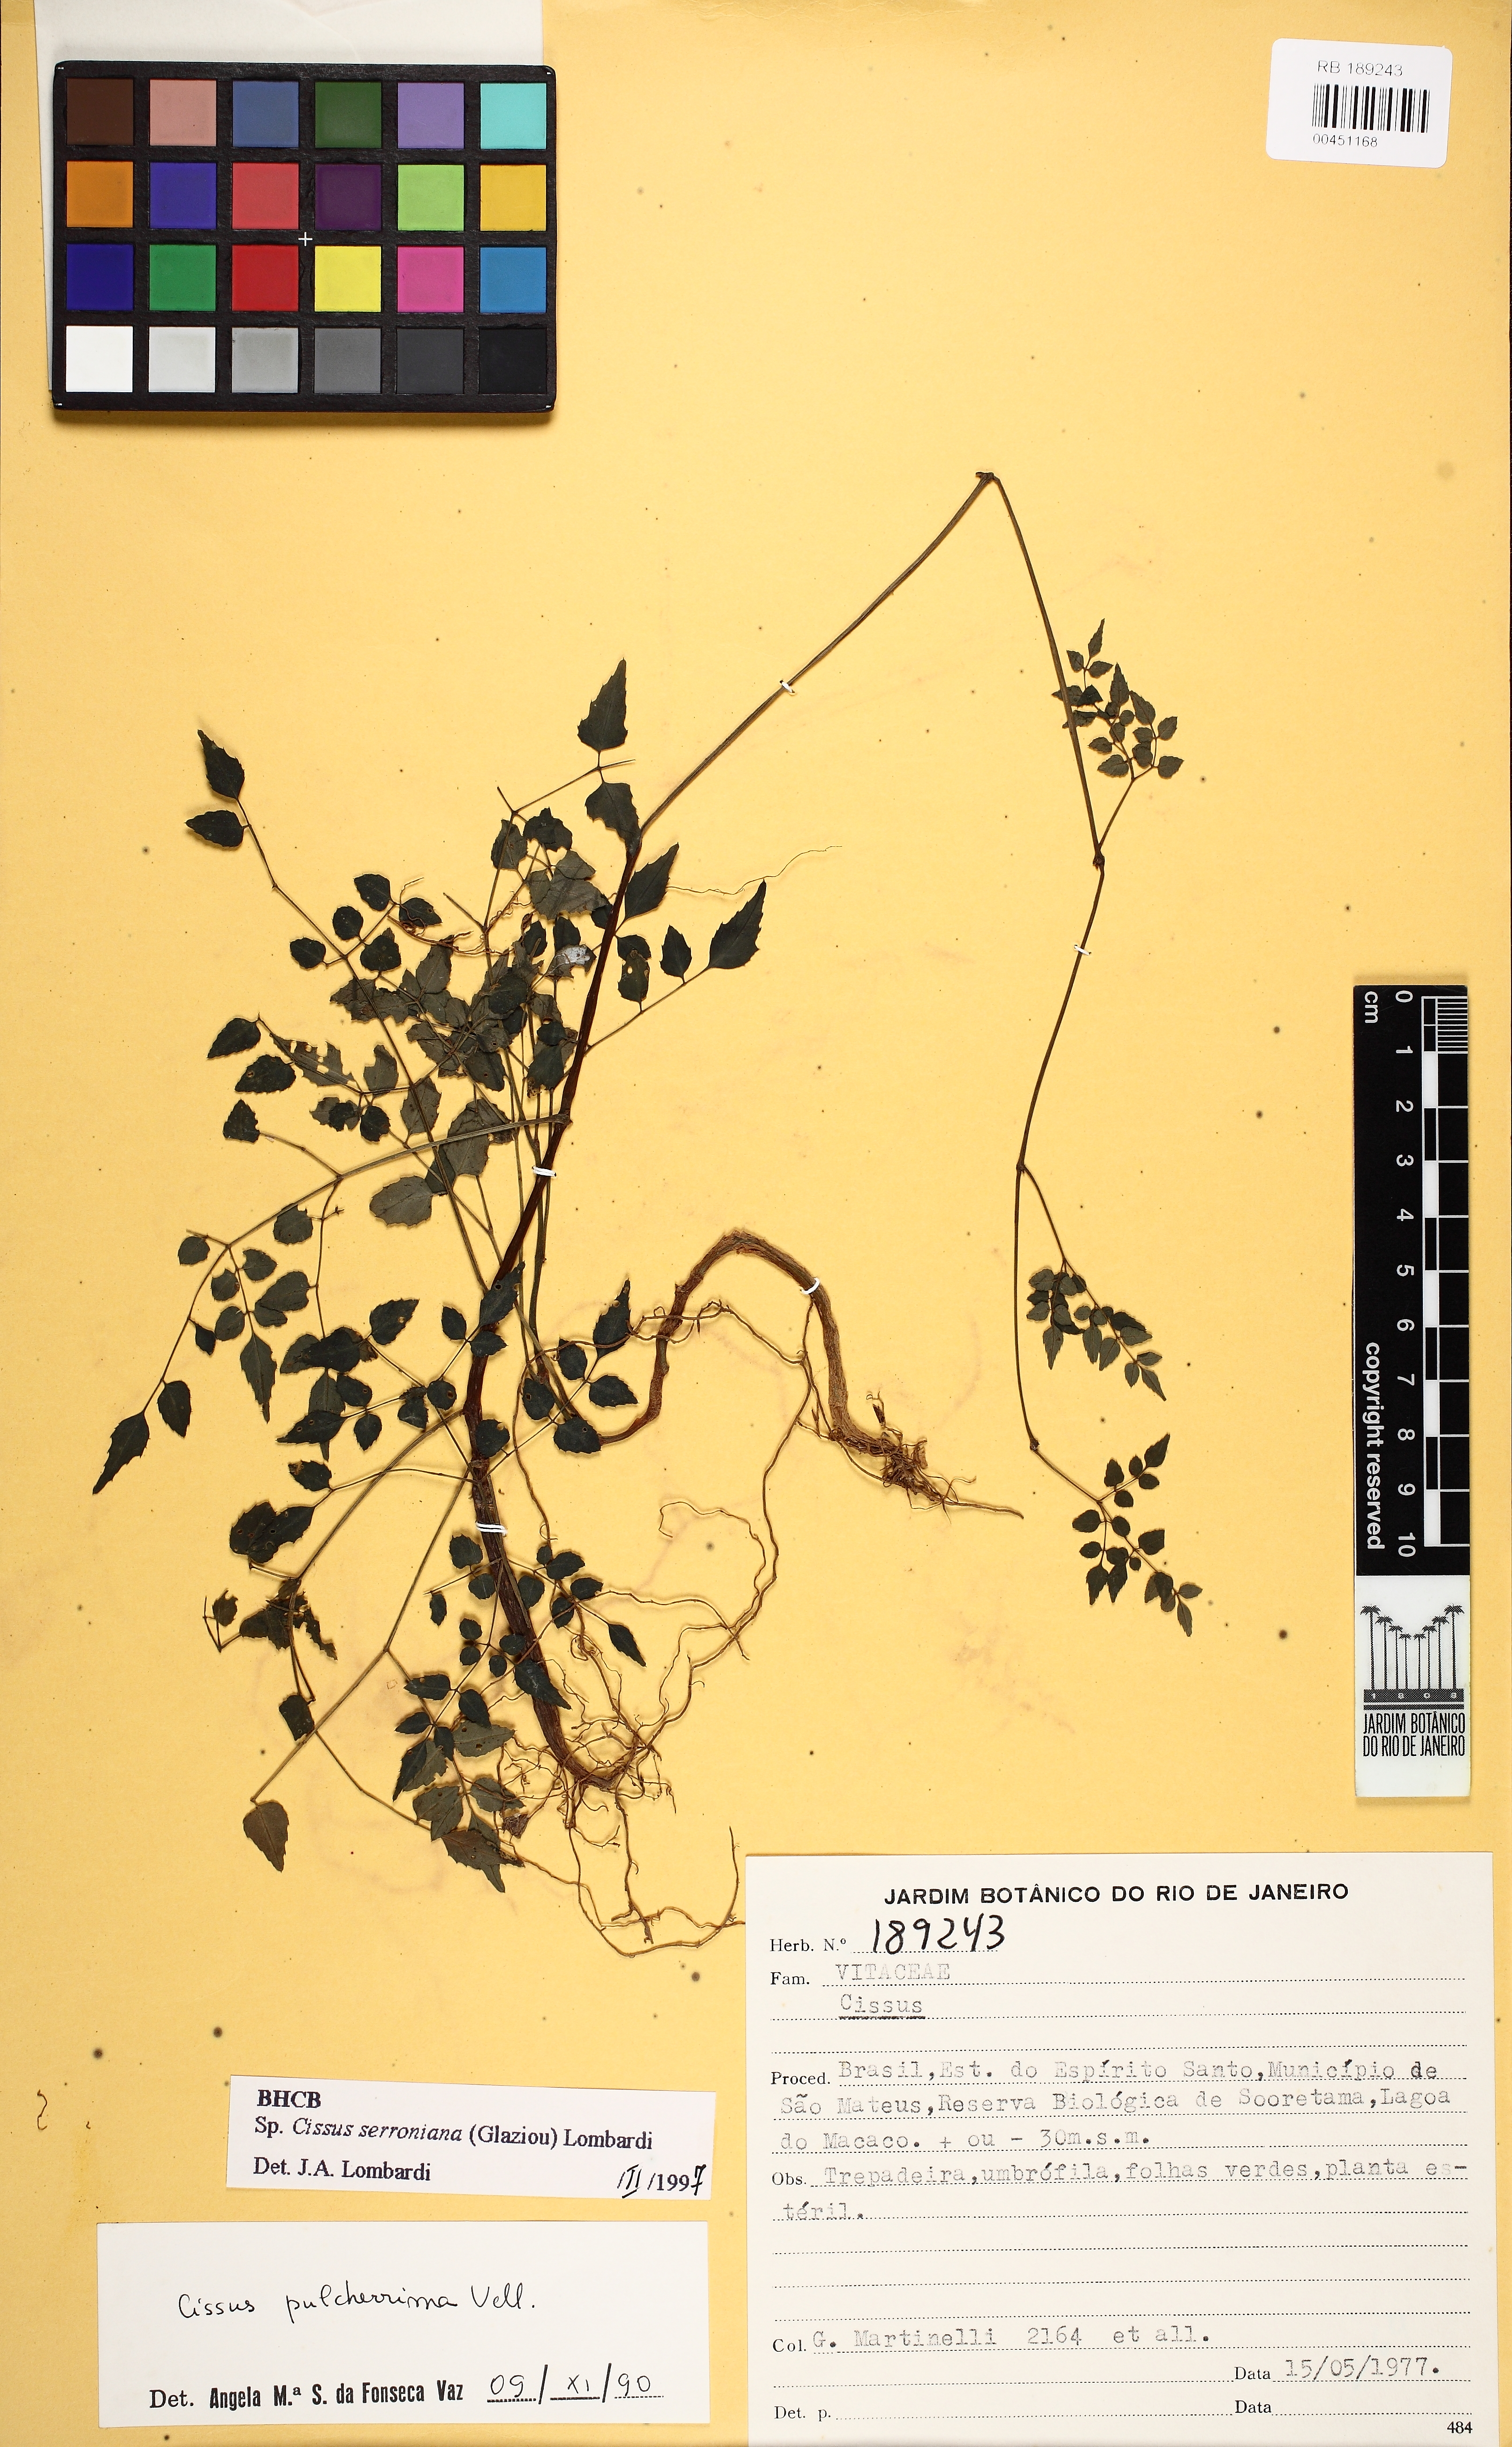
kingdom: Plantae
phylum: Tracheophyta
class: Magnoliopsida
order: Vitales
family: Vitaceae
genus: Cissus
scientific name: Cissus serroniana
